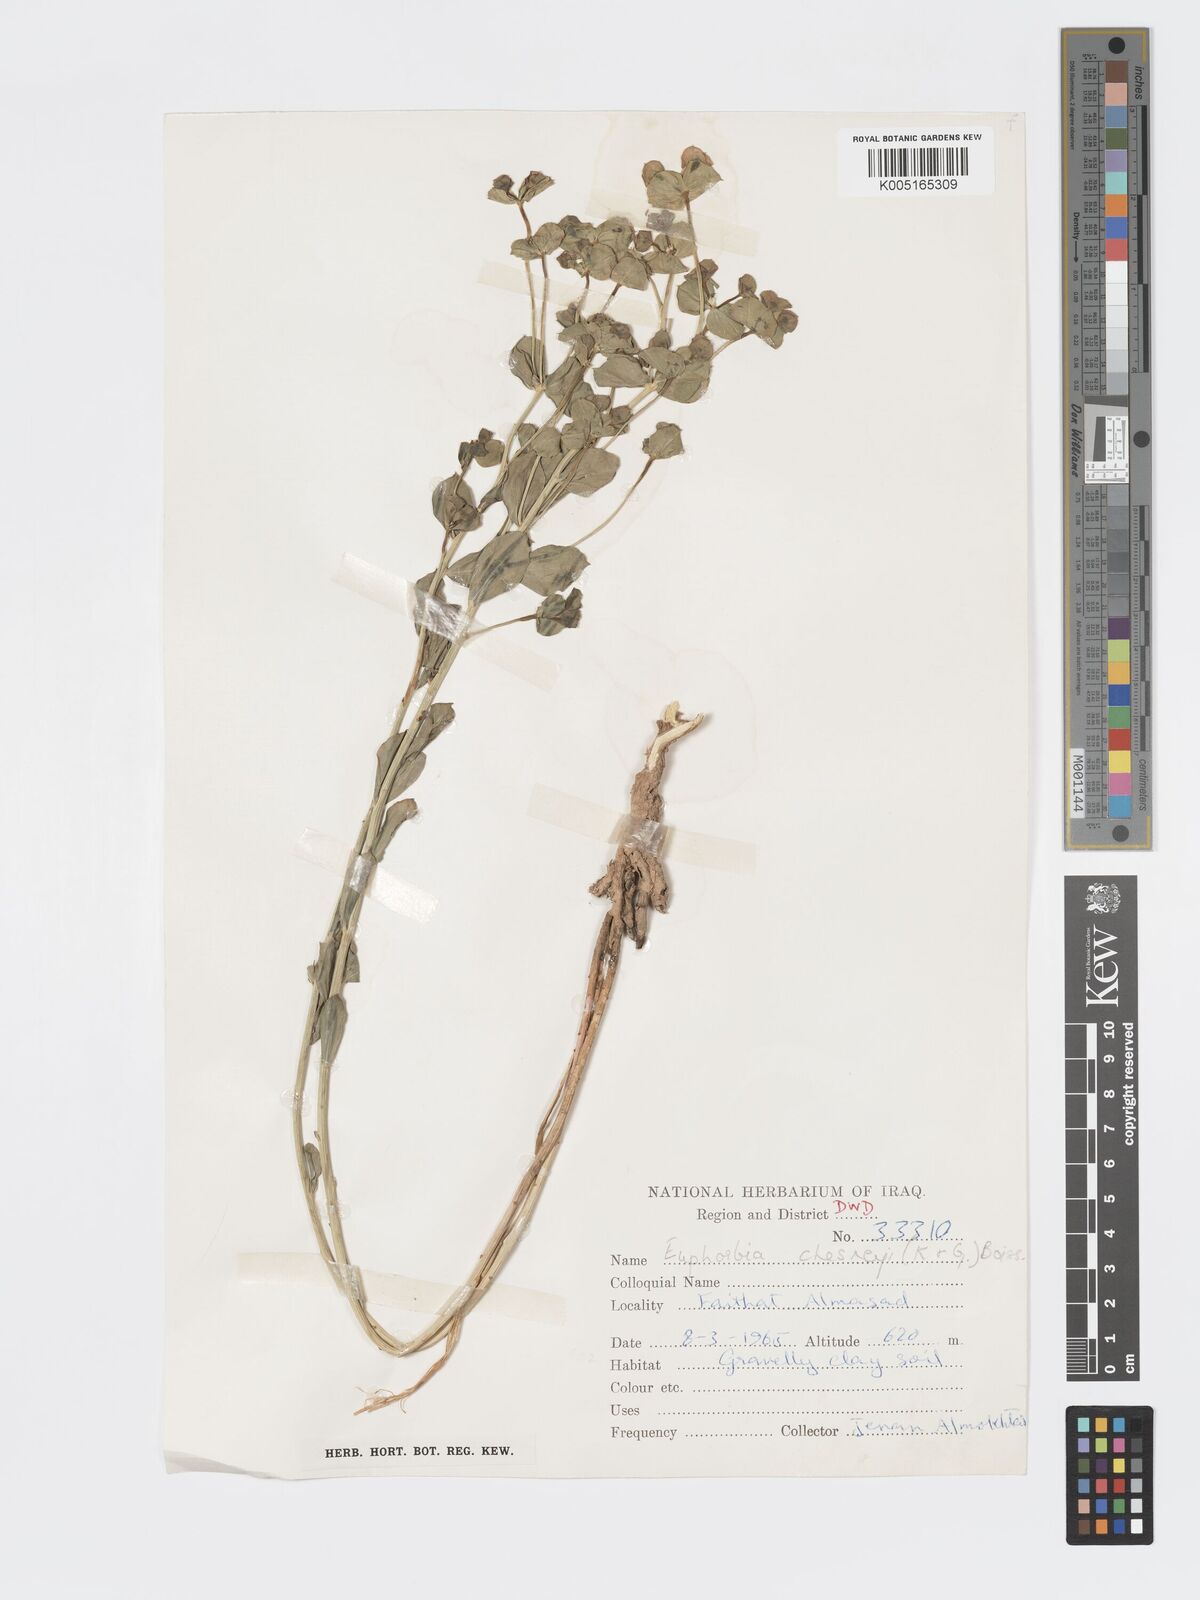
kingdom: Plantae
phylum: Tracheophyta
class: Magnoliopsida
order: Malpighiales
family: Euphorbiaceae
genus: Euphorbia
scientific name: Euphorbia cuspidata
